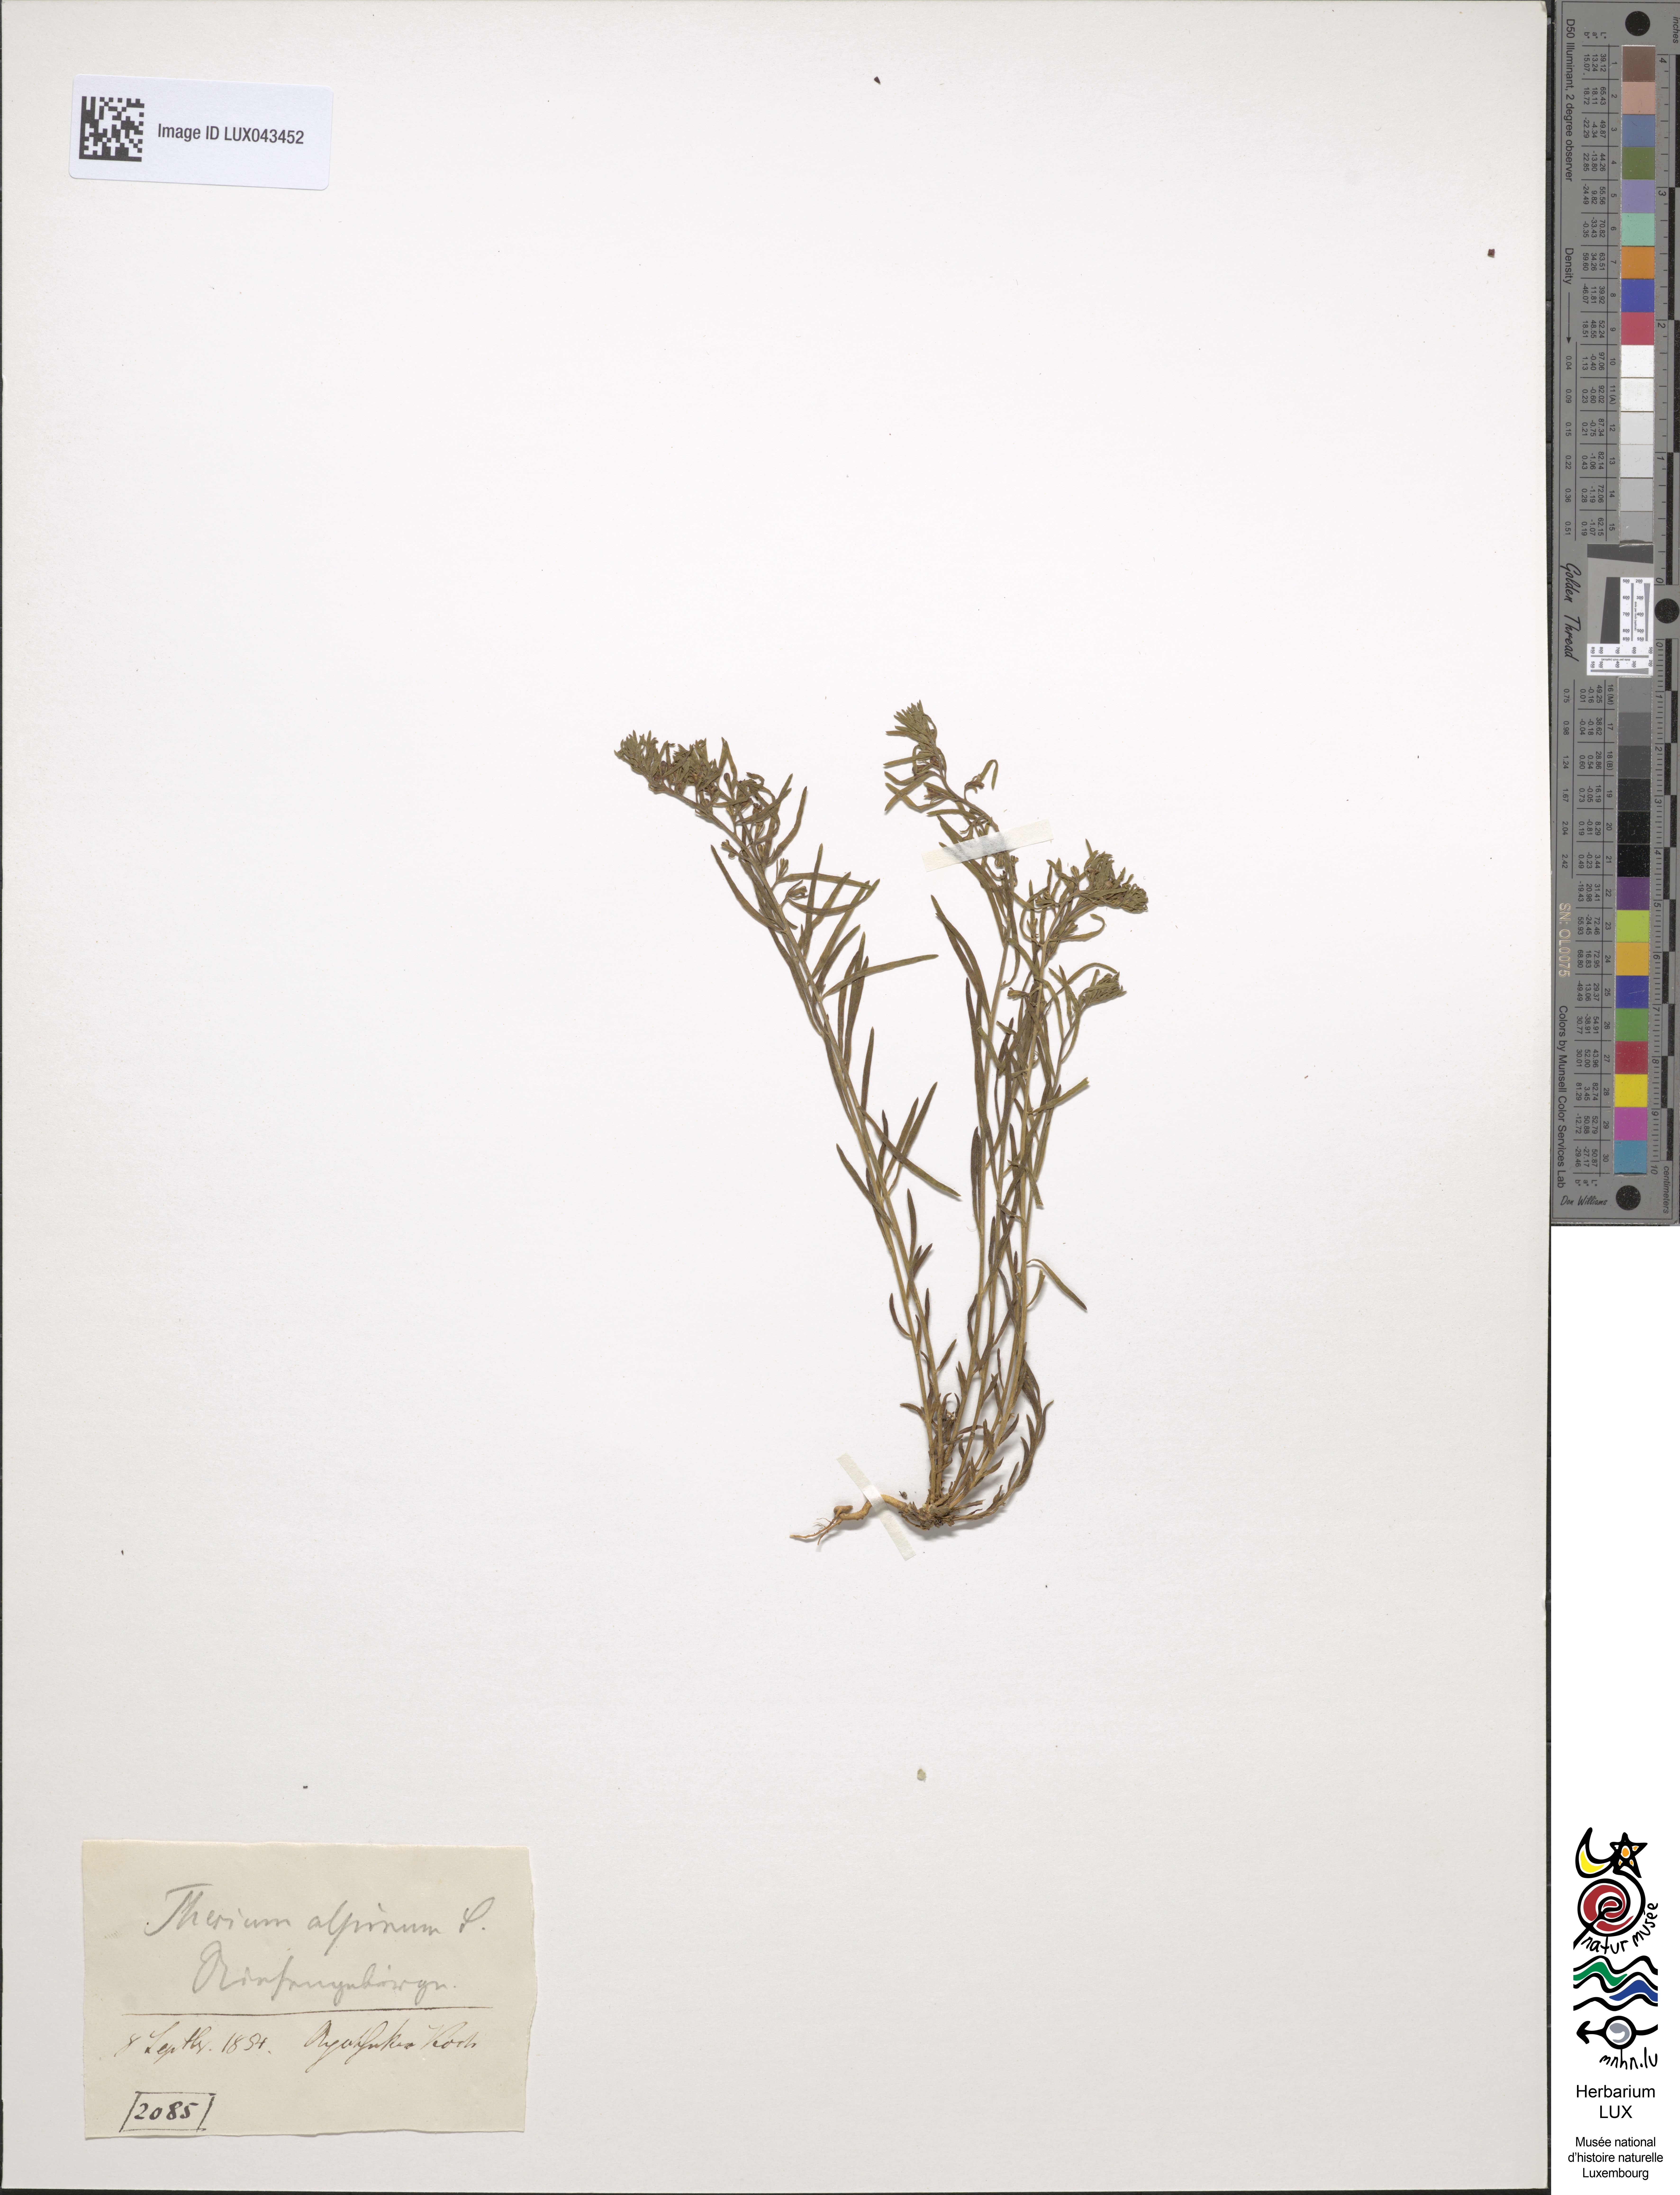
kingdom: Plantae
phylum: Tracheophyta
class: Magnoliopsida
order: Santalales
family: Thesiaceae
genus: Thesium
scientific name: Thesium alpinum
